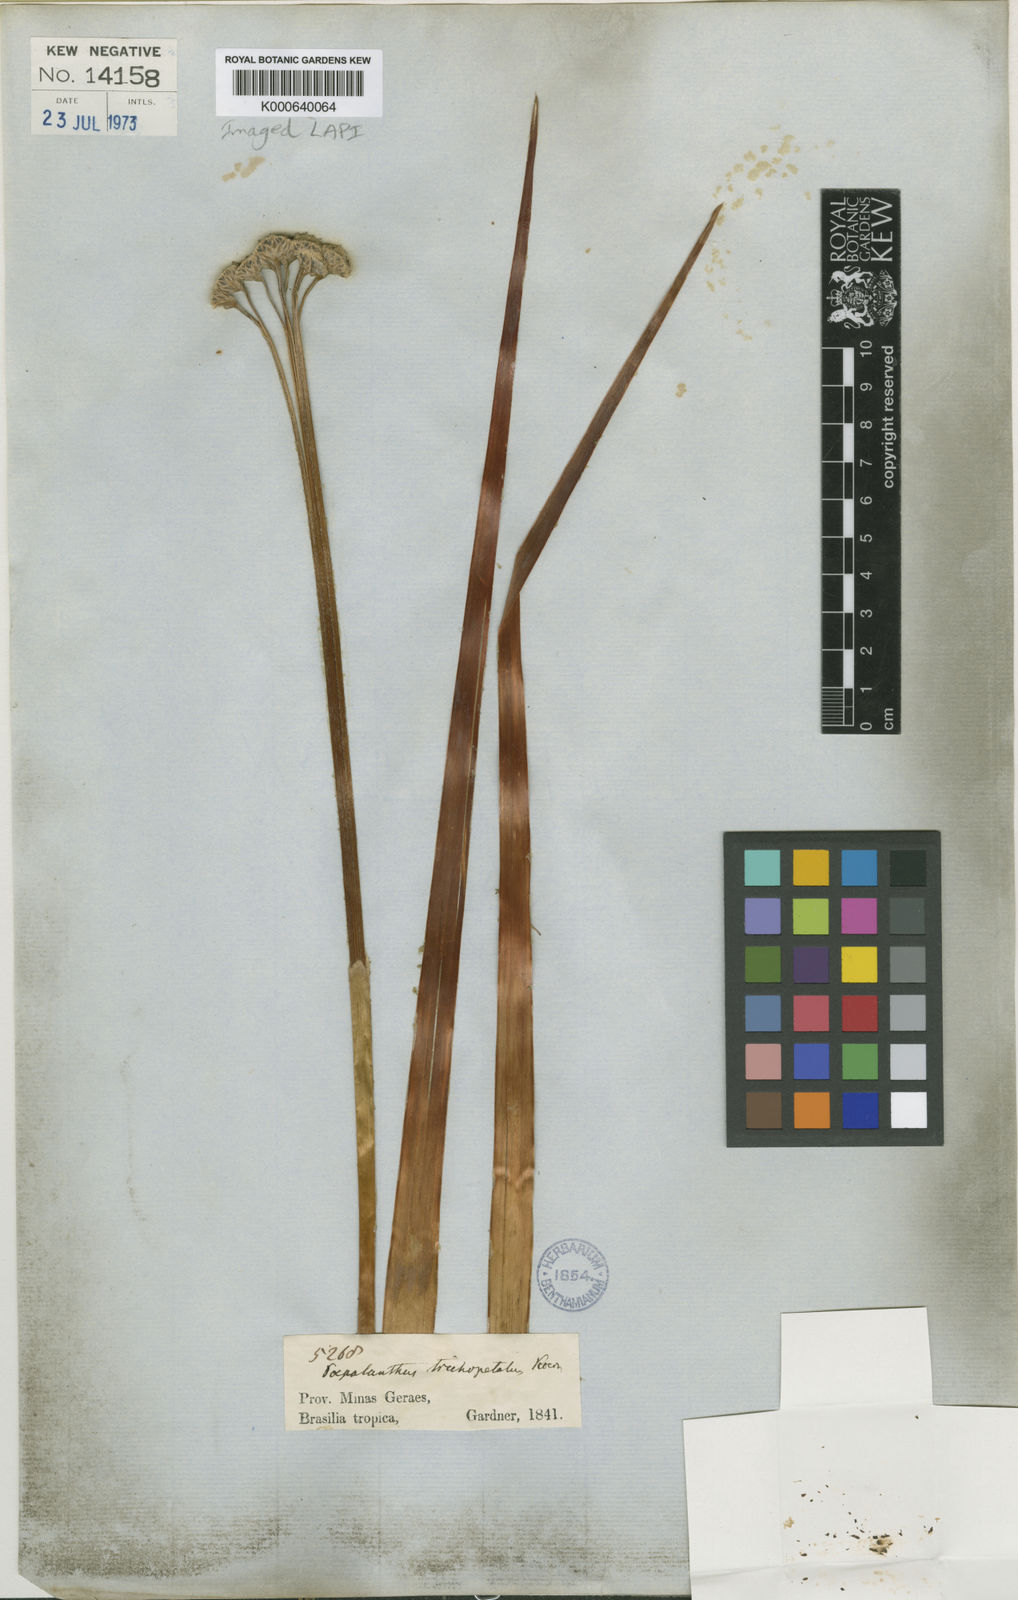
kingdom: Plantae
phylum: Tracheophyta
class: Liliopsida
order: Poales
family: Eriocaulaceae
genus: Paepalanthus
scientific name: Paepalanthus
